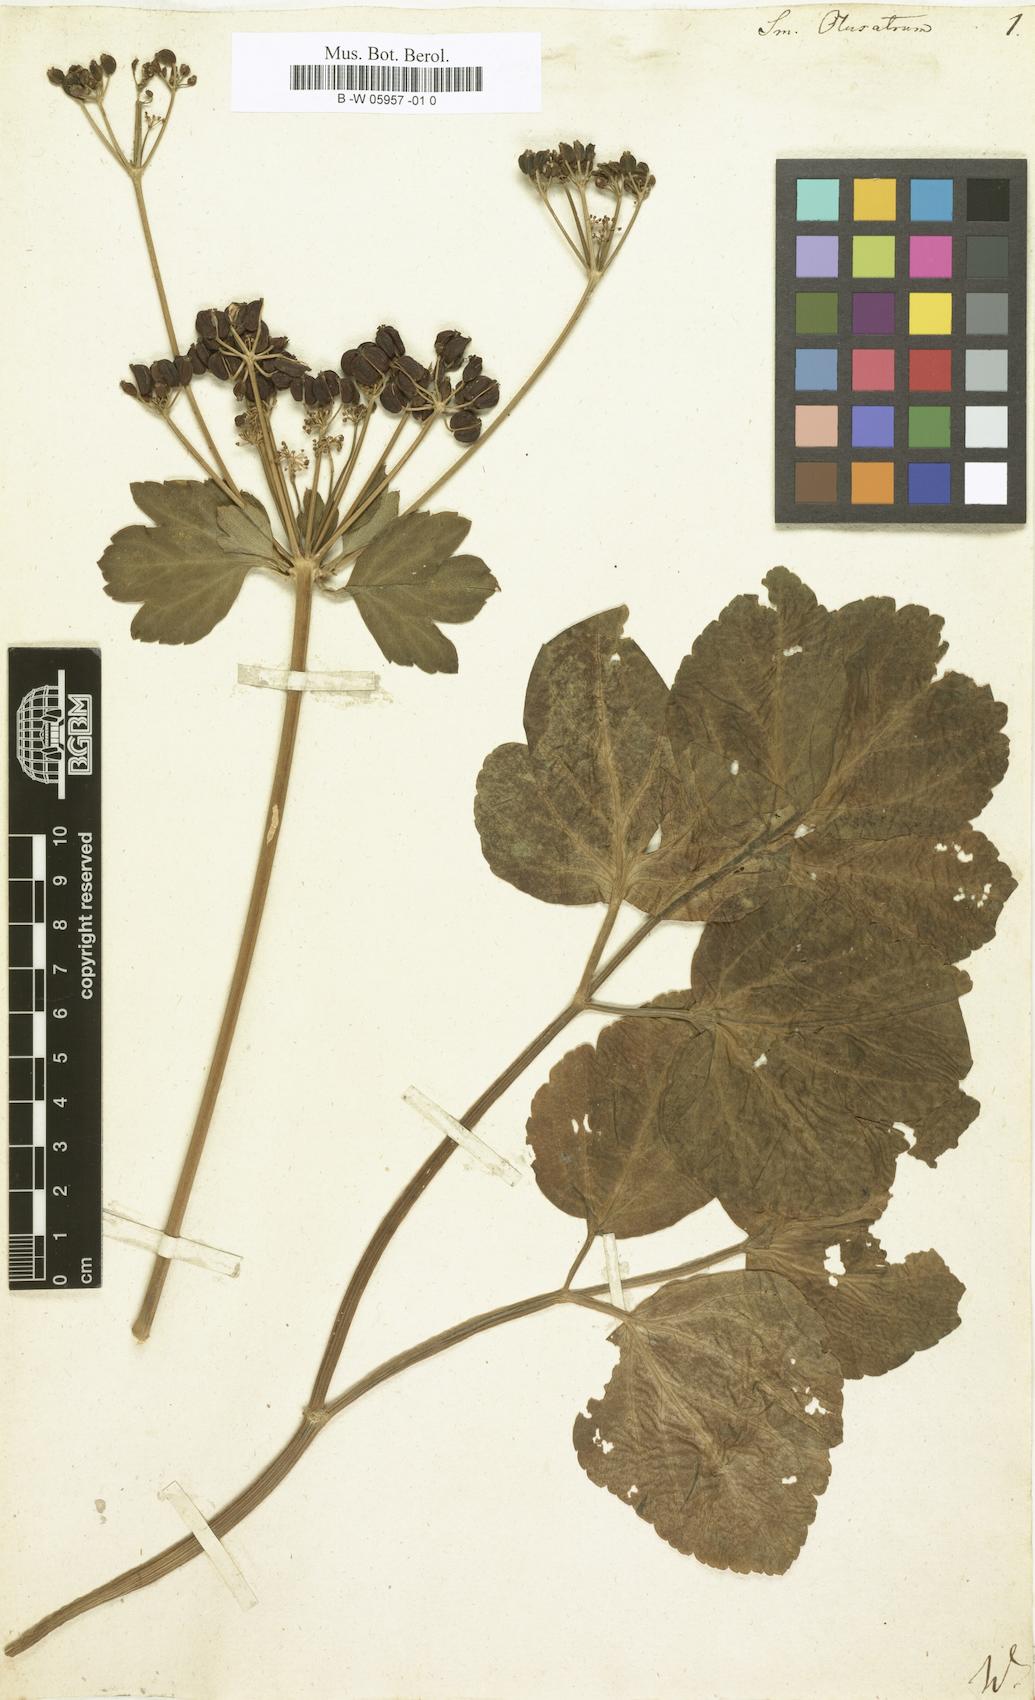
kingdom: Plantae
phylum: Tracheophyta
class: Magnoliopsida
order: Apiales
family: Apiaceae
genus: Smyrnium
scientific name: Smyrnium olusatrum
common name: Alexanders
